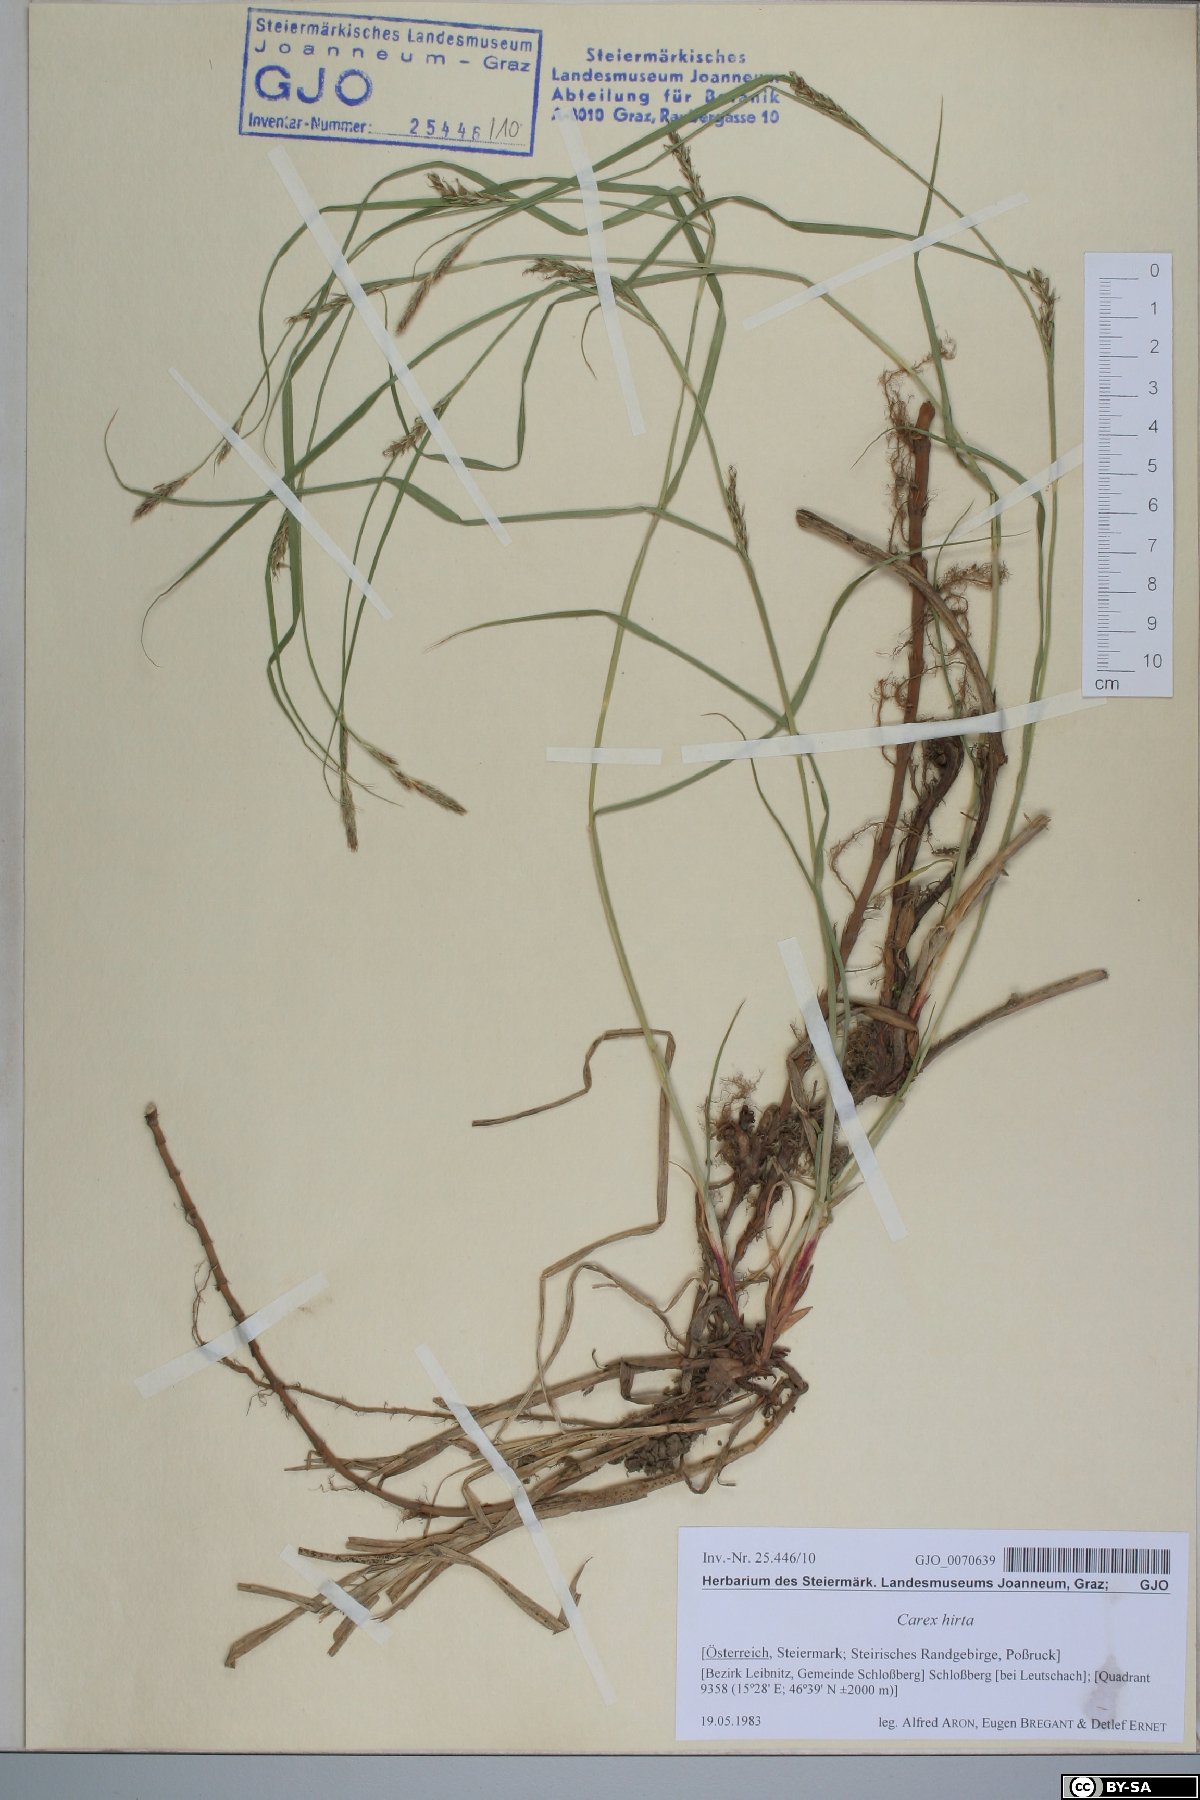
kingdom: Plantae
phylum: Tracheophyta
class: Liliopsida
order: Poales
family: Cyperaceae
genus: Carex
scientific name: Carex hirta
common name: Hairy sedge
